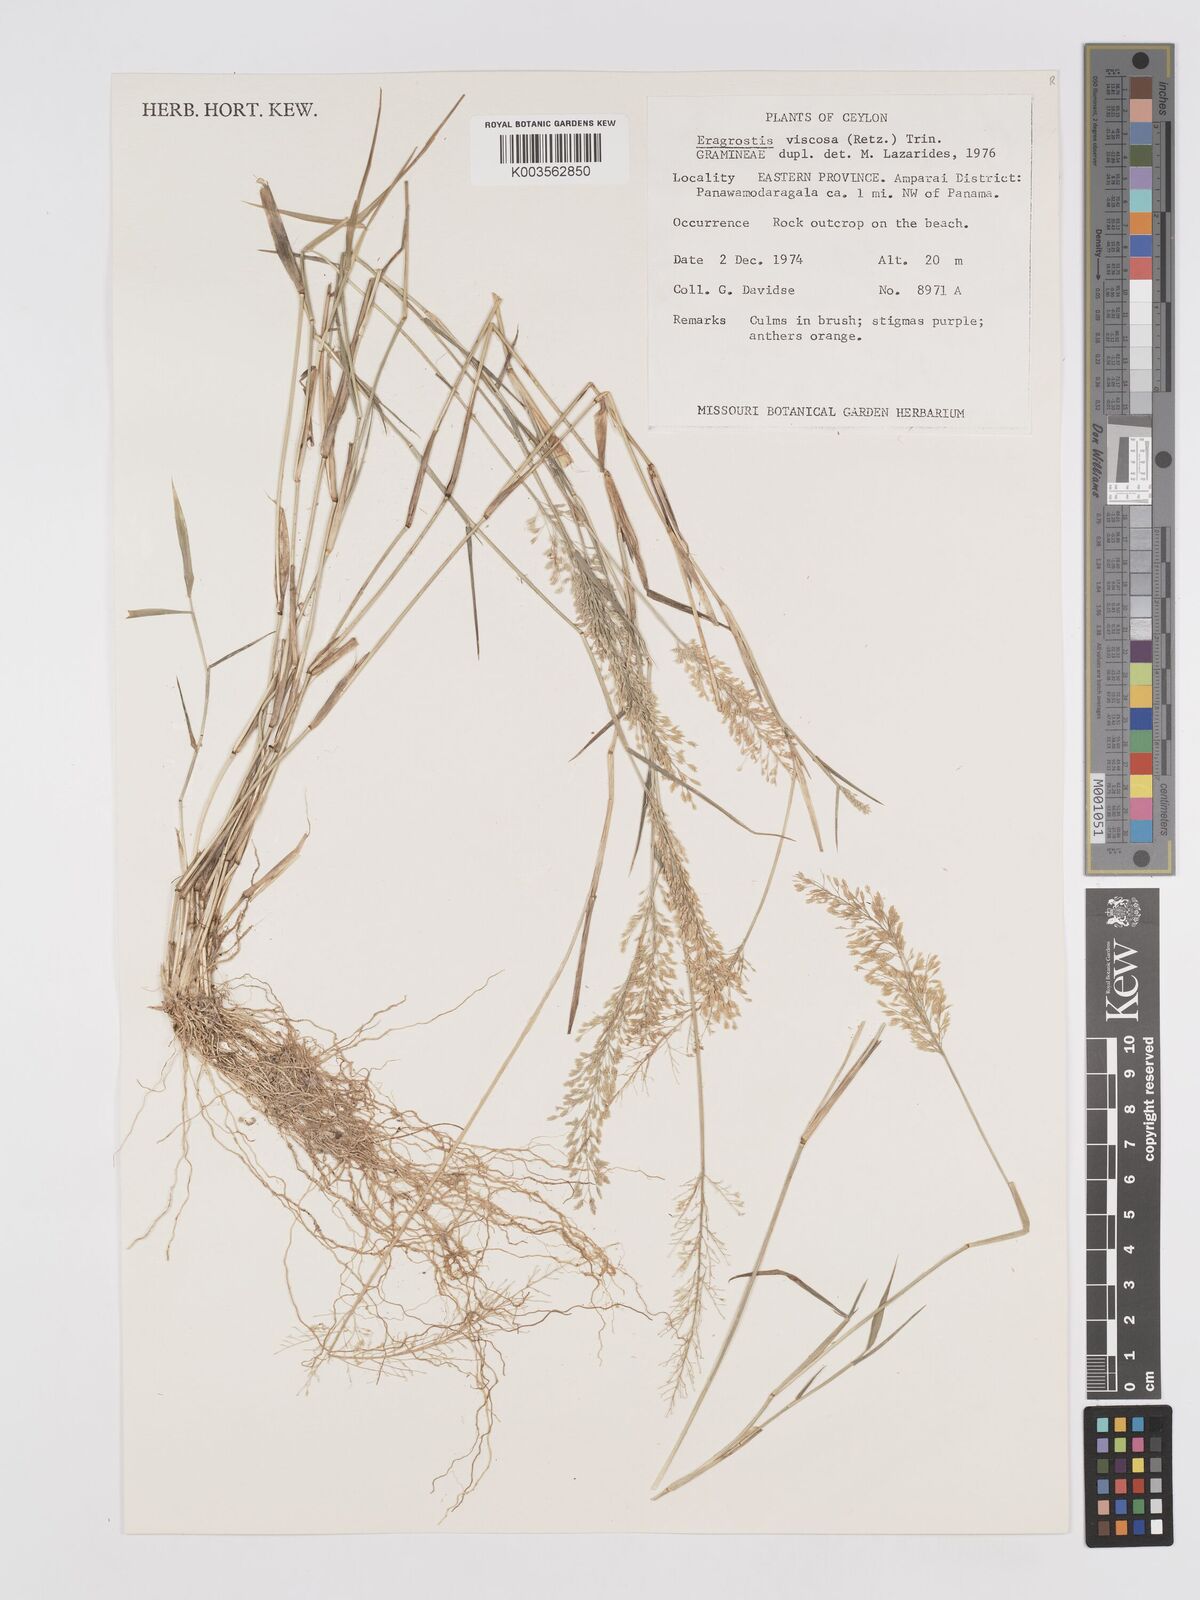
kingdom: Plantae
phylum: Tracheophyta
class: Liliopsida
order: Poales
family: Poaceae
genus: Eragrostis
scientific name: Eragrostis viscosa
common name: Sticky love grass
